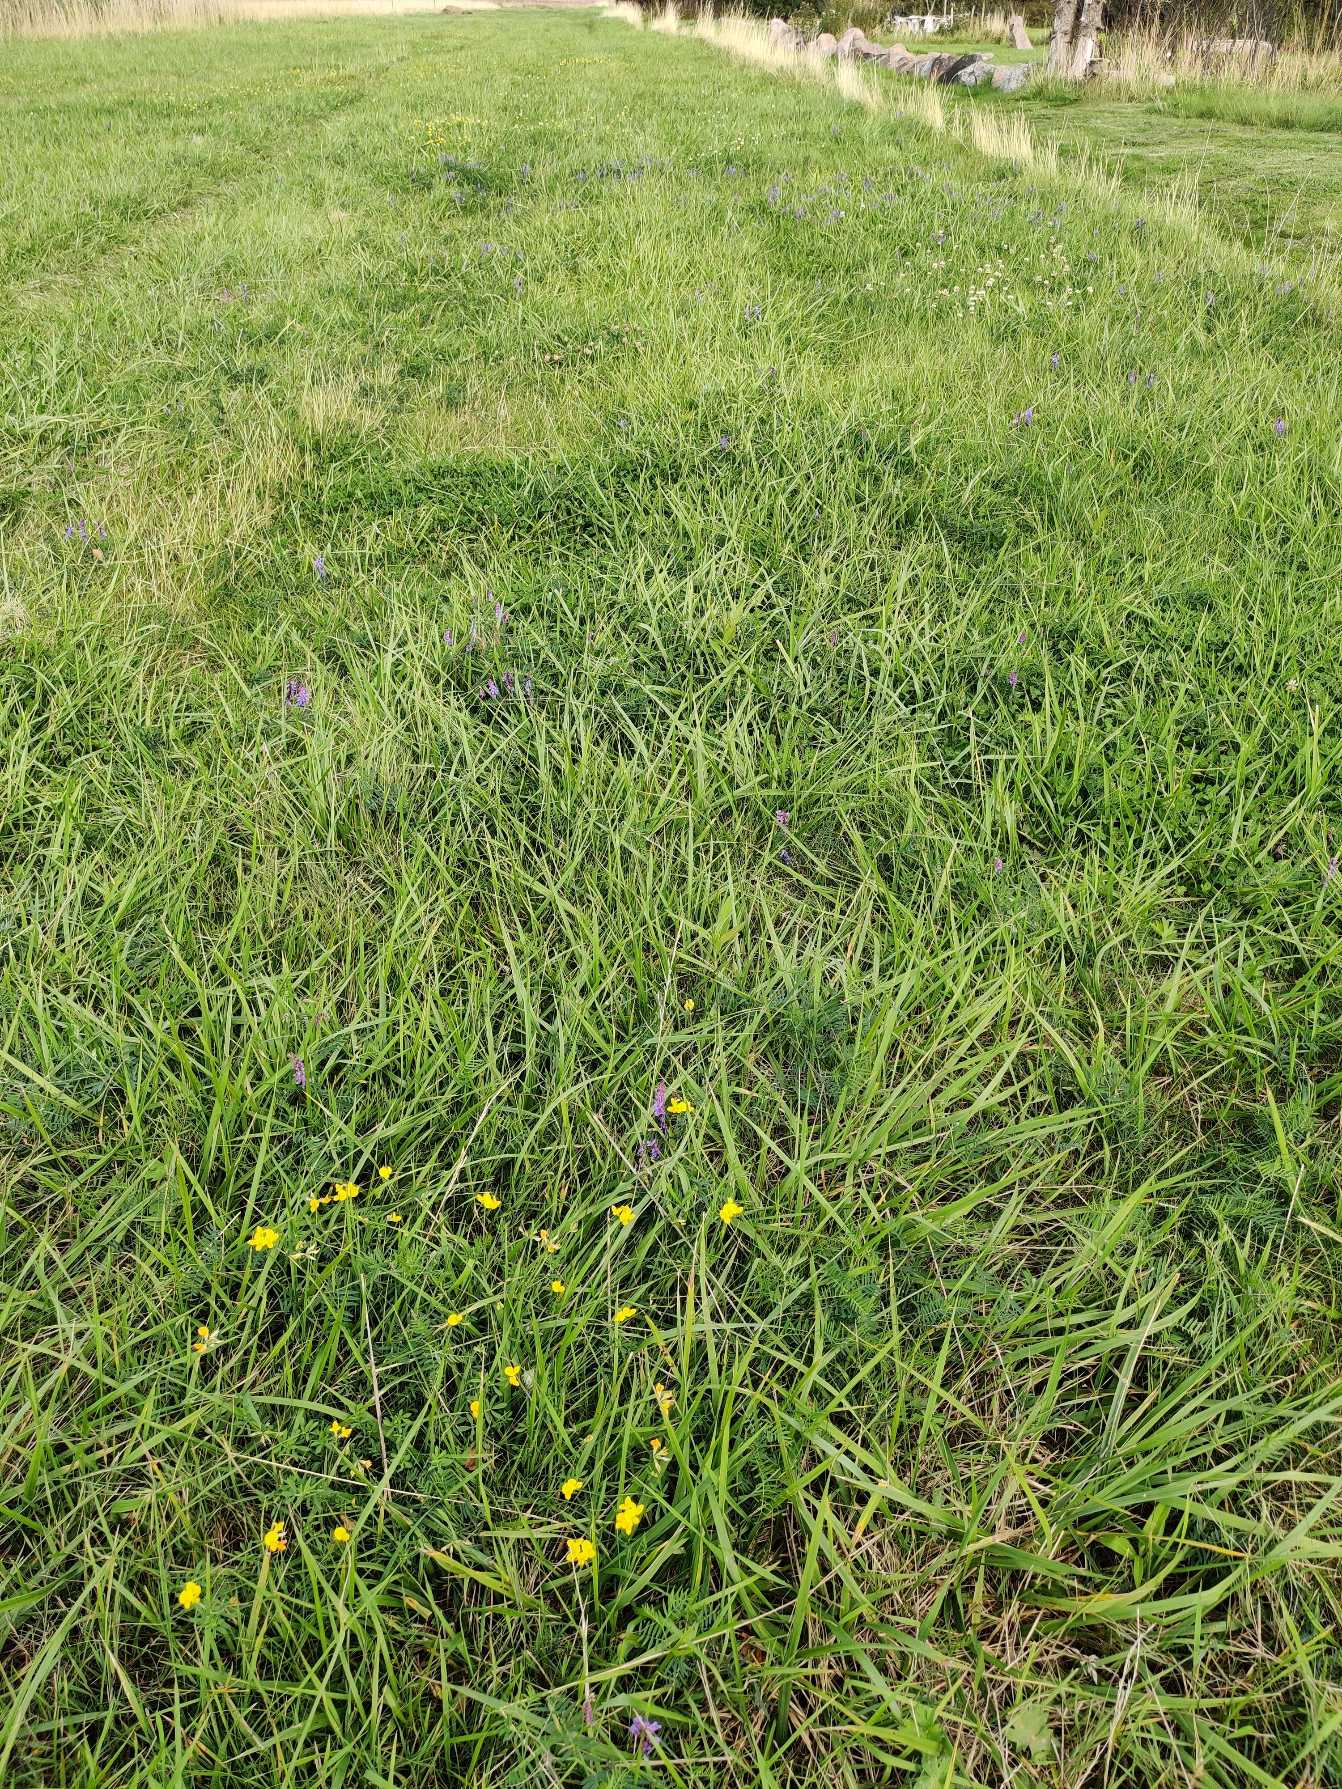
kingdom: Plantae
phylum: Tracheophyta
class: Magnoliopsida
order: Fabales
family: Fabaceae
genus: Vicia
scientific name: Vicia cracca
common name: Muse-vikke
